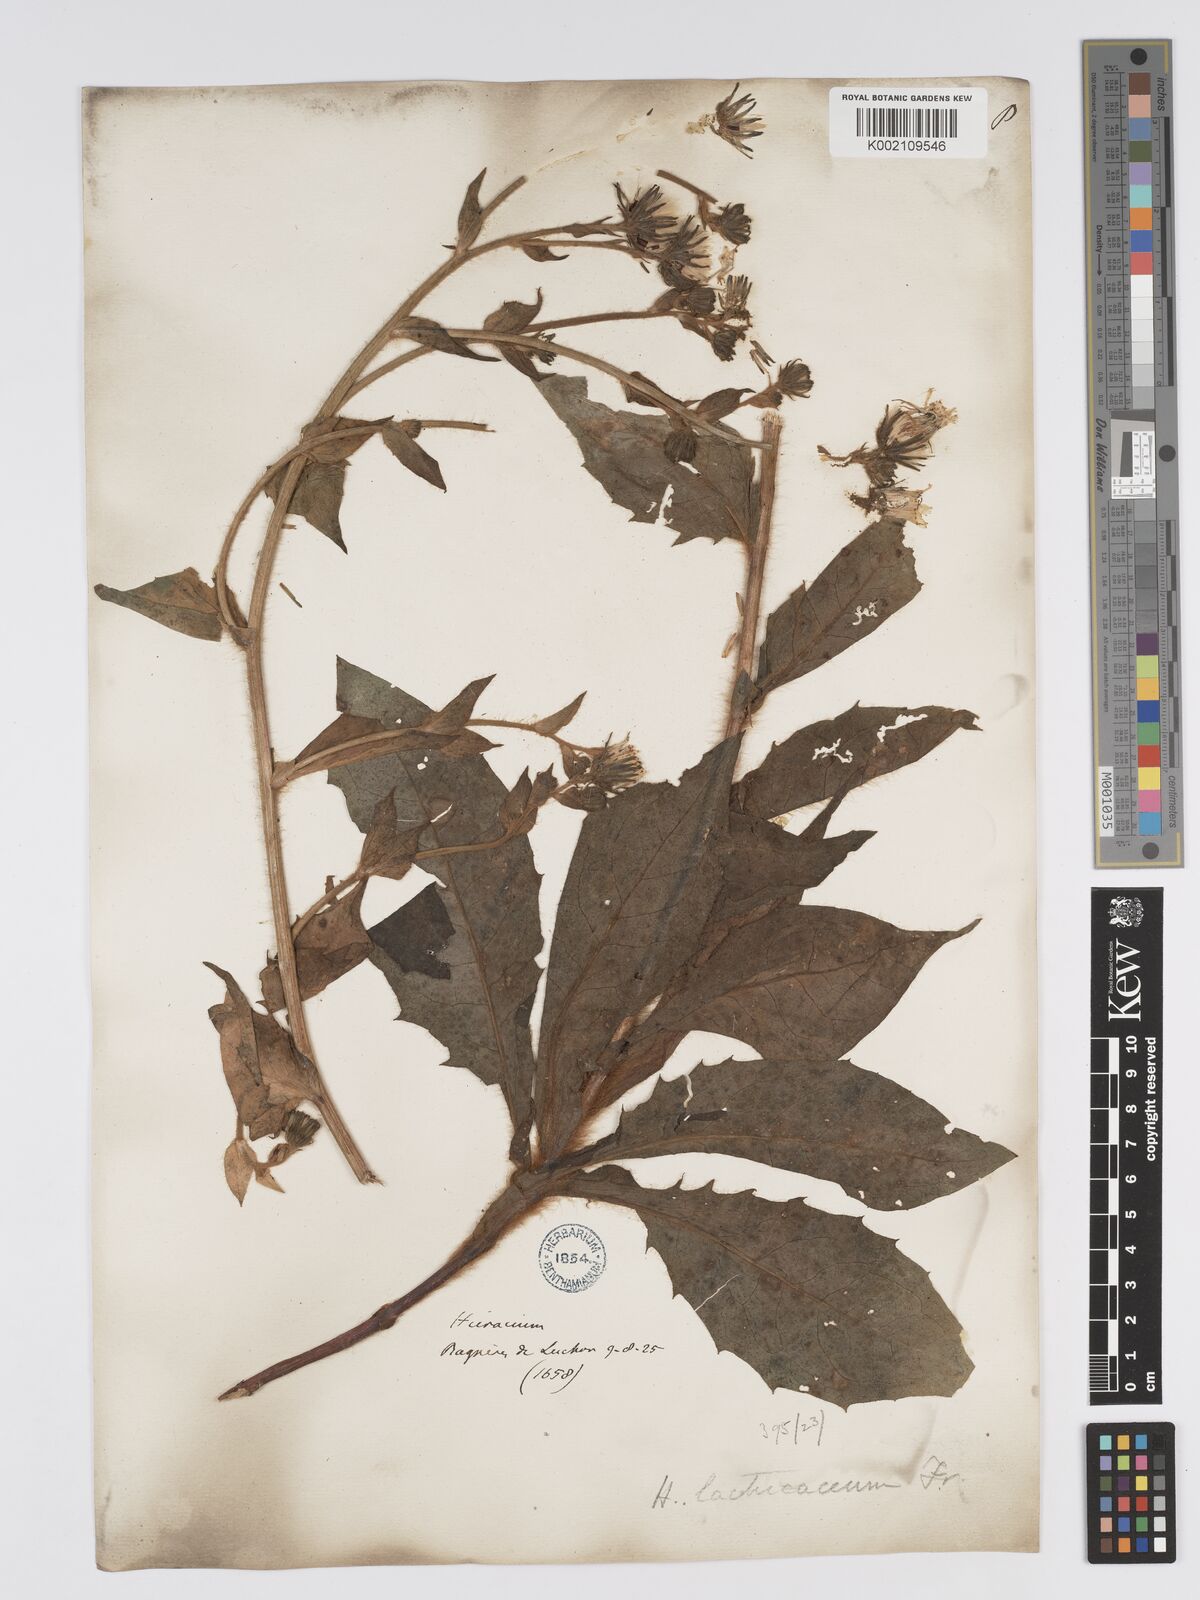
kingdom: Plantae
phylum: Tracheophyta
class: Magnoliopsida
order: Asterales
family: Asteraceae
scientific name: Asteraceae
